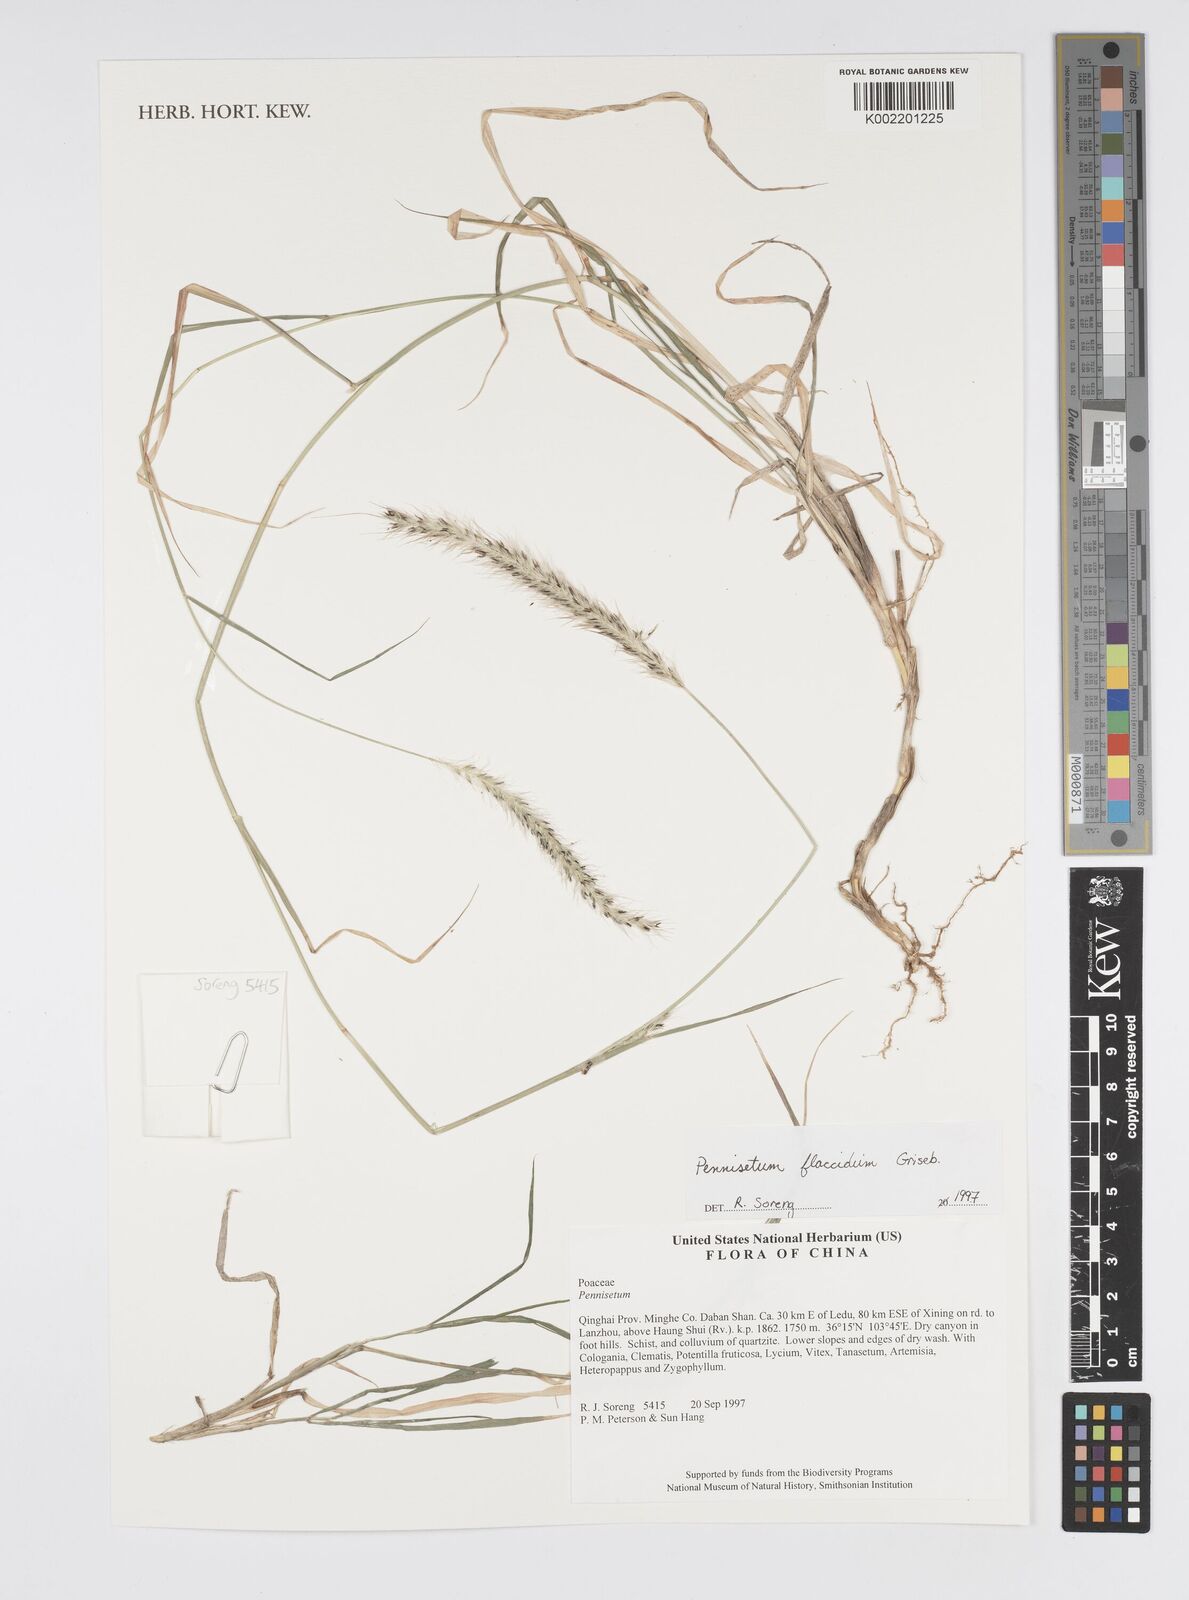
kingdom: Plantae
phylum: Tracheophyta
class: Liliopsida
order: Poales
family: Poaceae
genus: Cenchrus
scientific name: Cenchrus flaccidus
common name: Flaccid grass
